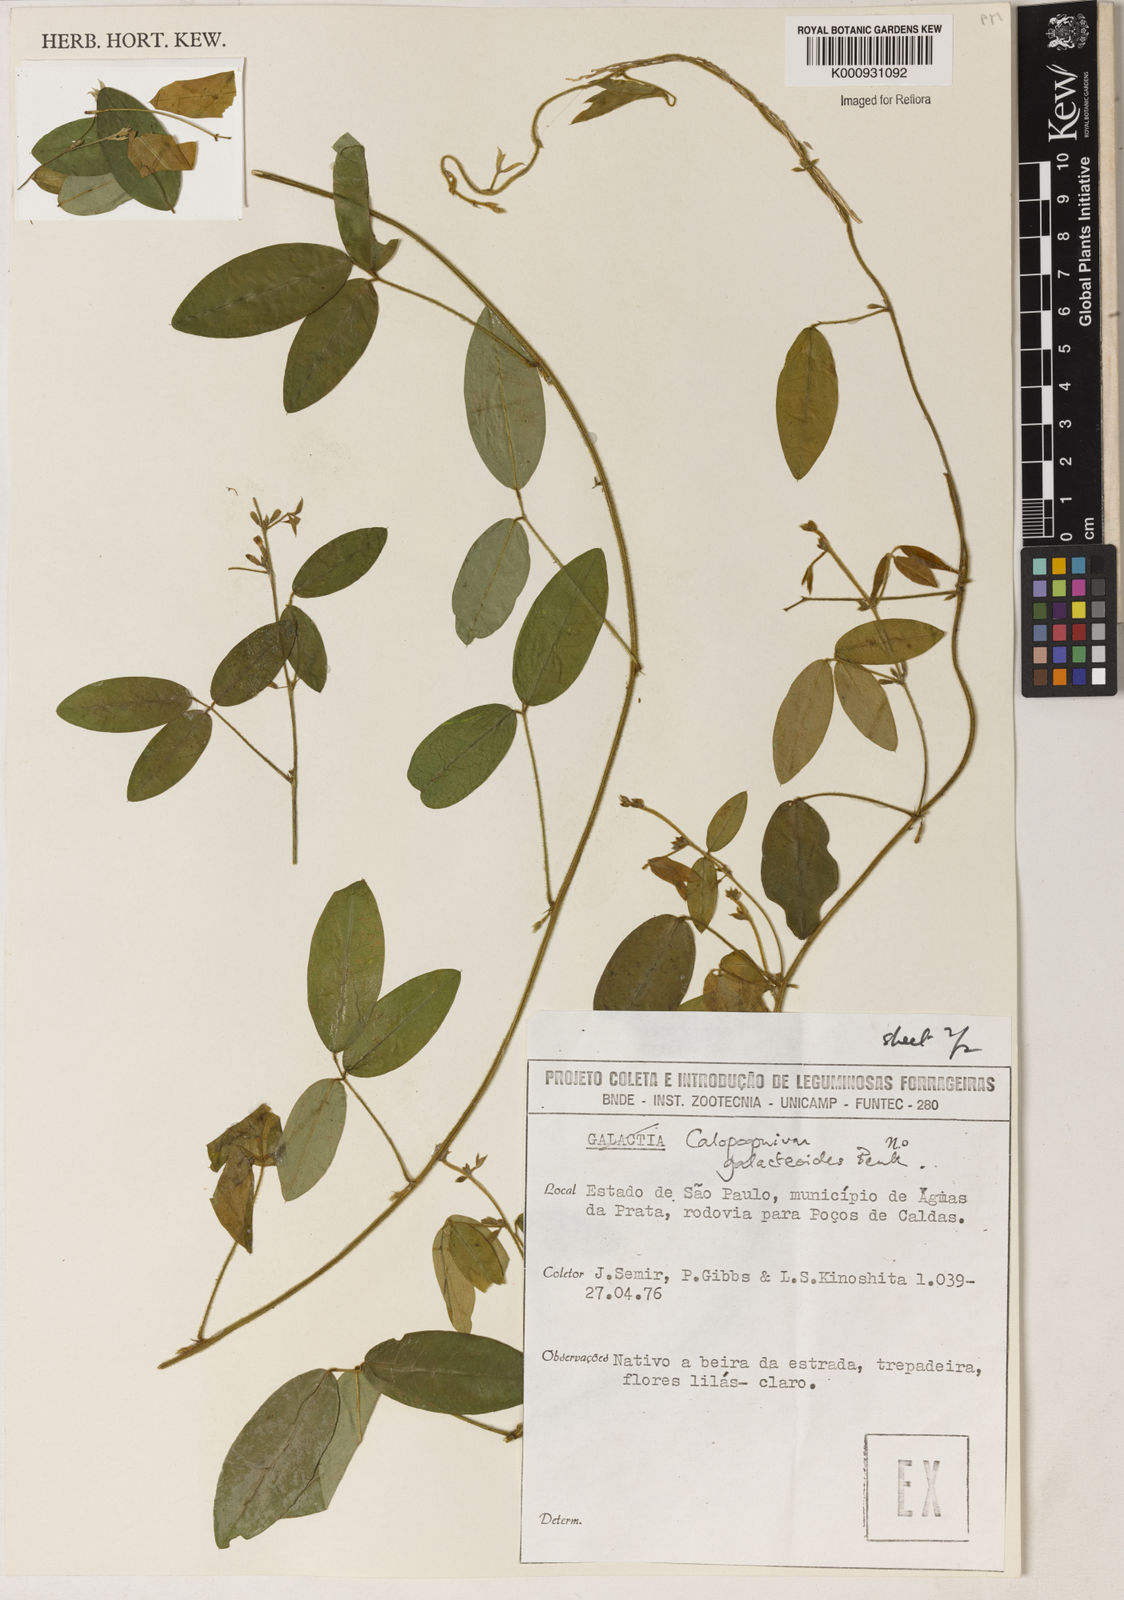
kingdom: Plantae
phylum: Tracheophyta
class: Magnoliopsida
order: Fabales
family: Fabaceae
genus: Calopogonium
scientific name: Calopogonium galactioides
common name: Legume
